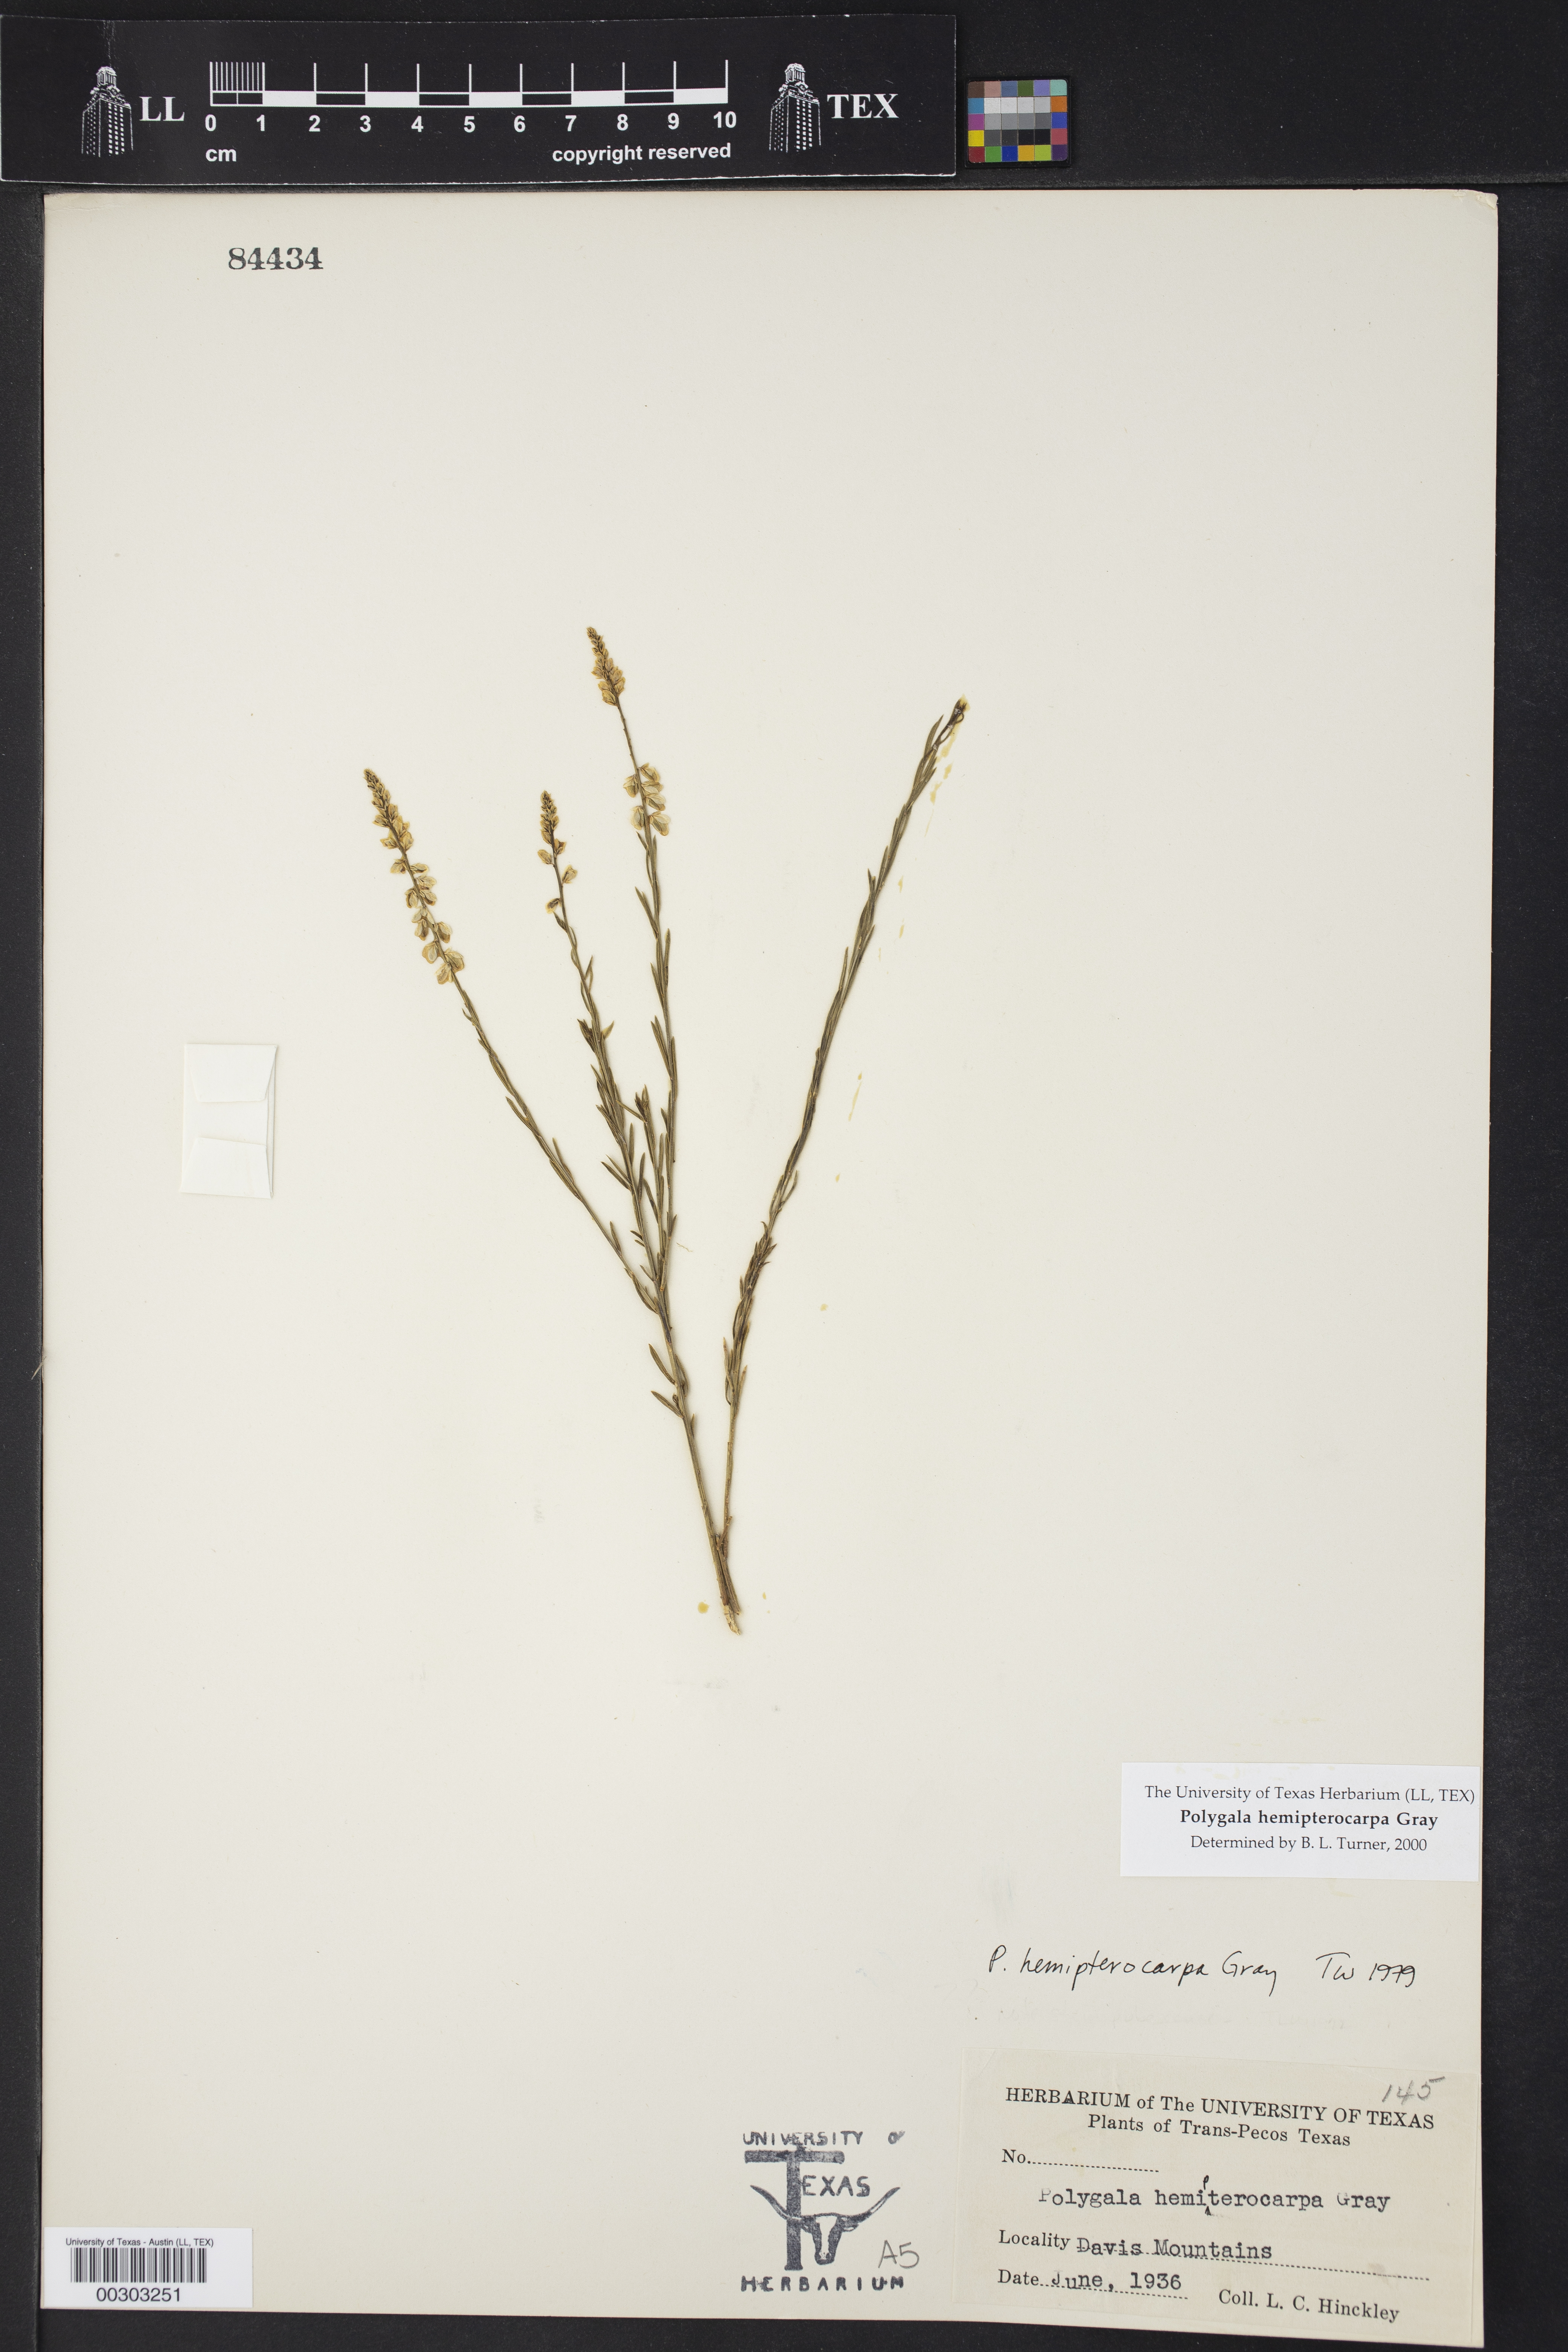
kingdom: Plantae
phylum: Tracheophyta
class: Magnoliopsida
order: Fabales
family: Polygalaceae
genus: Polygala
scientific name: Polygala hemipterocarpa
